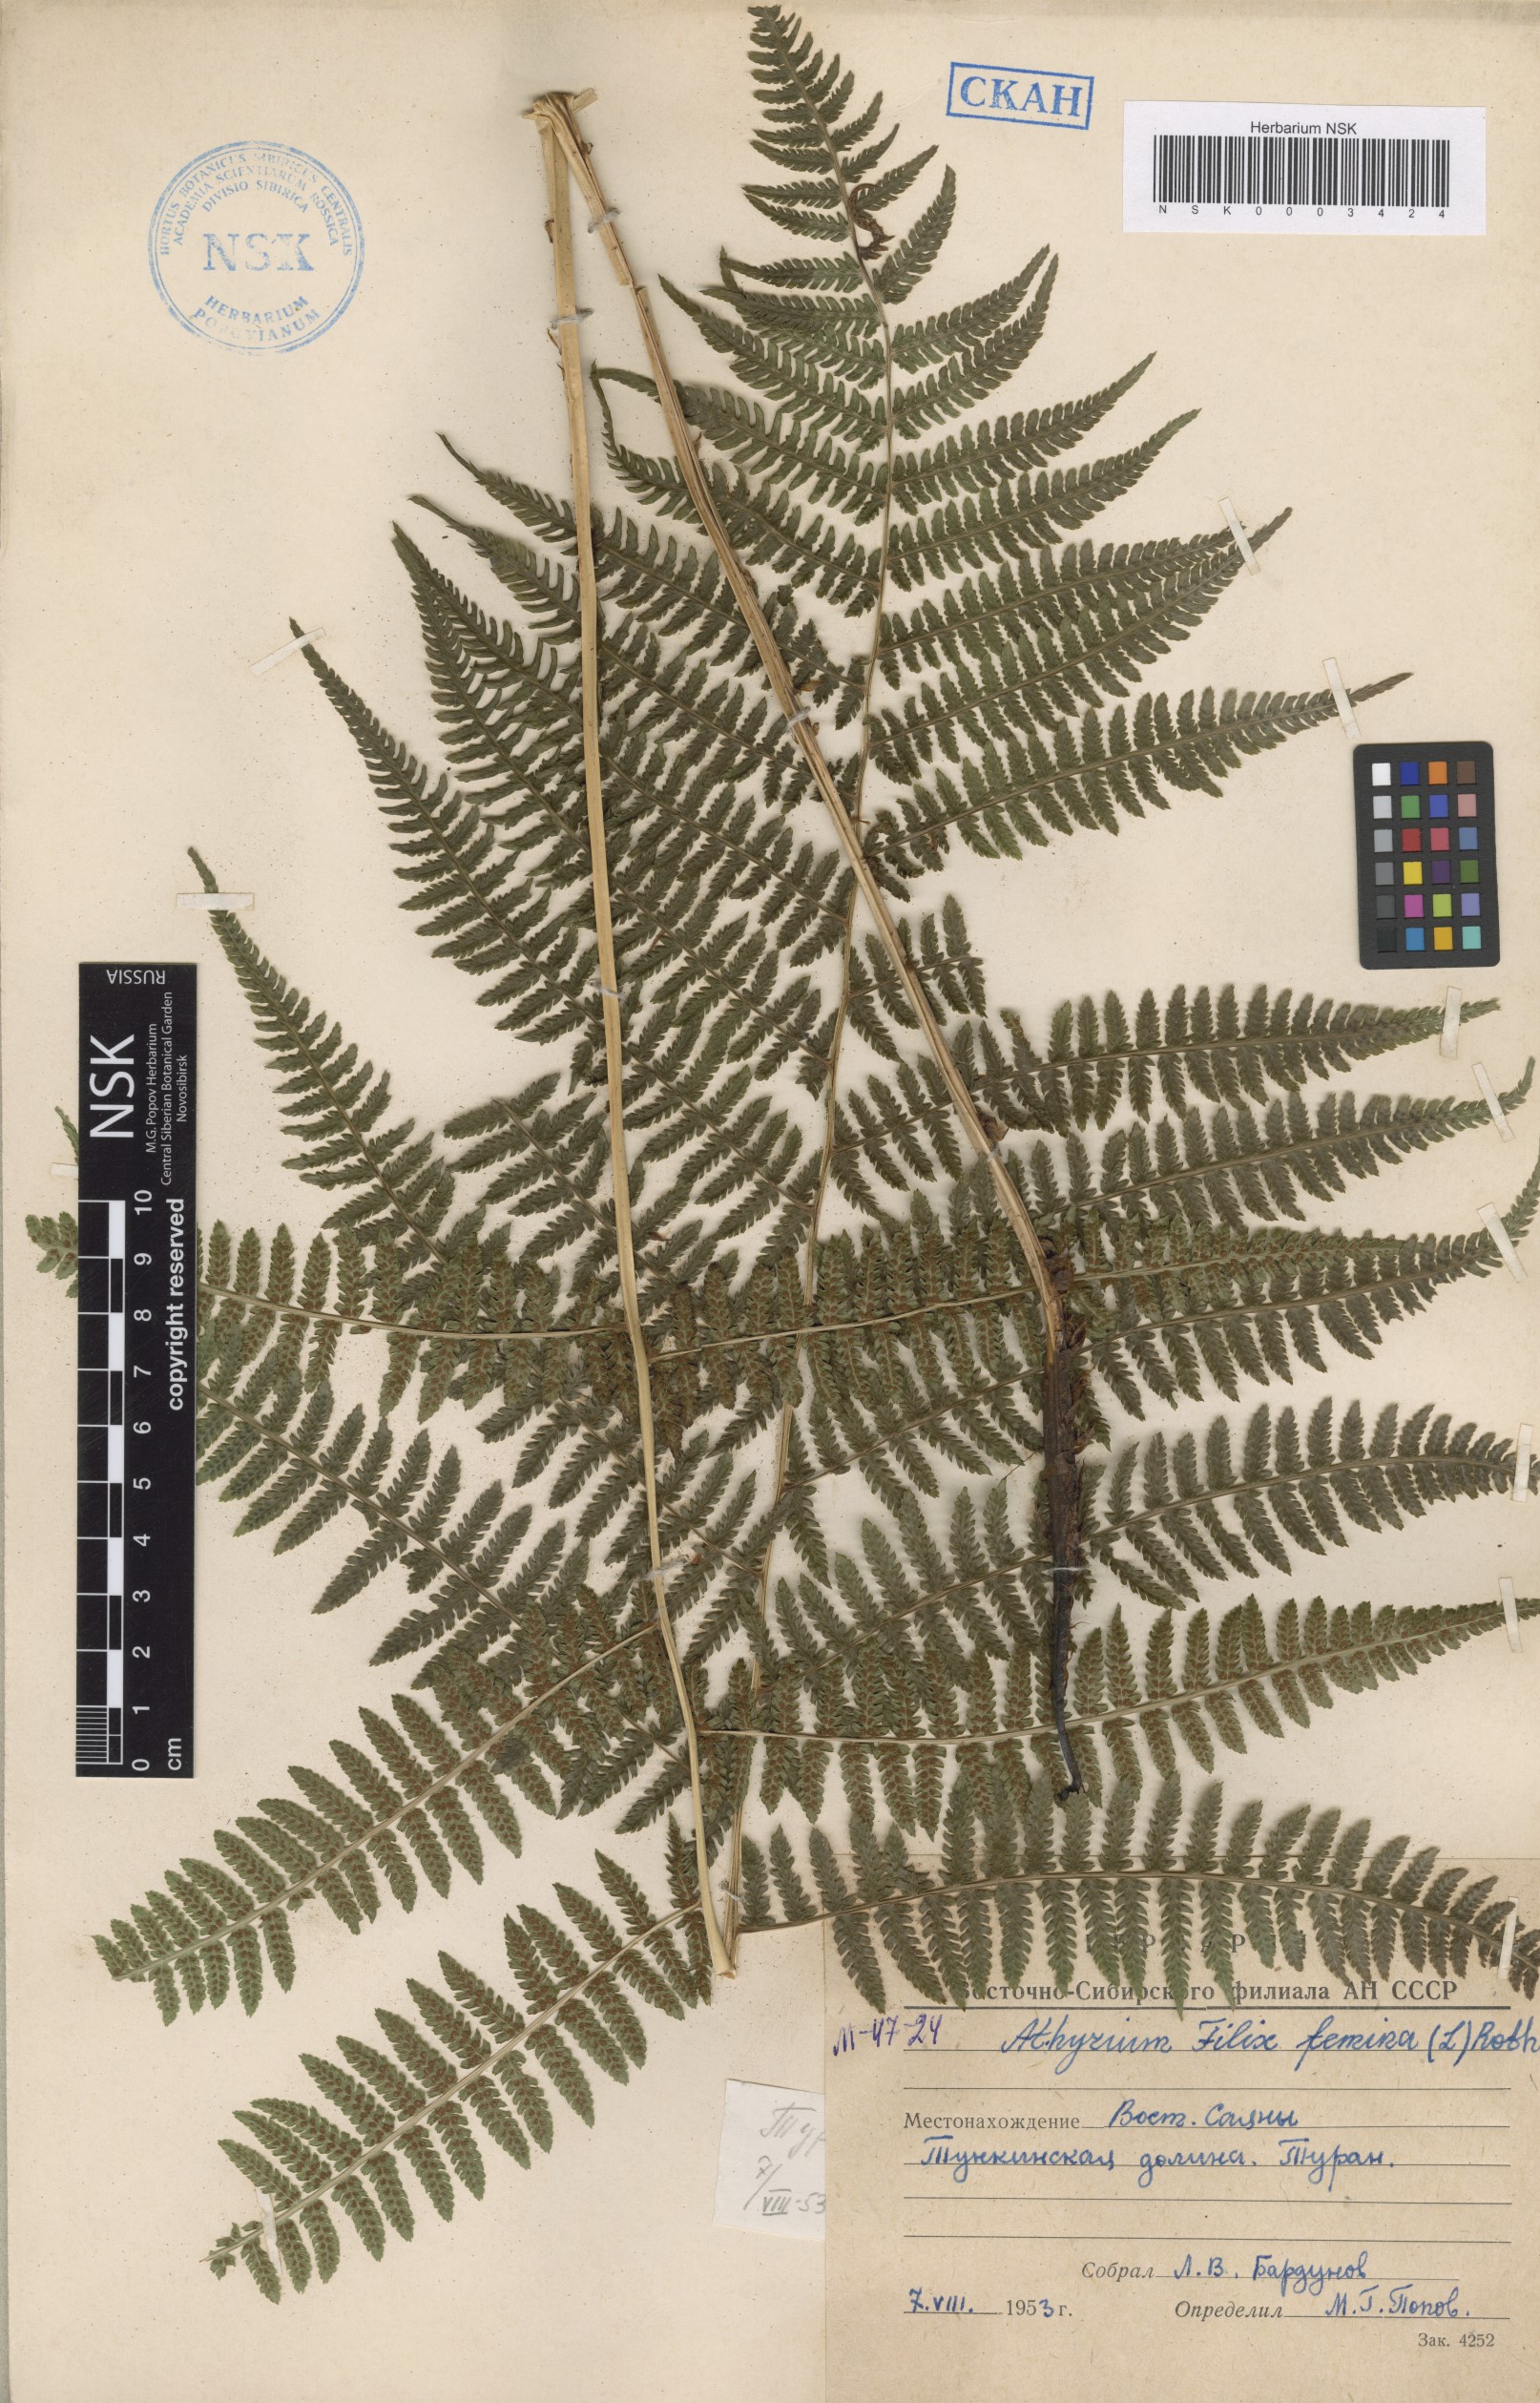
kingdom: Plantae
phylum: Tracheophyta
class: Polypodiopsida
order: Polypodiales
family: Athyriaceae
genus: Athyrium
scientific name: Athyrium filix-femina
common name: Lady fern
